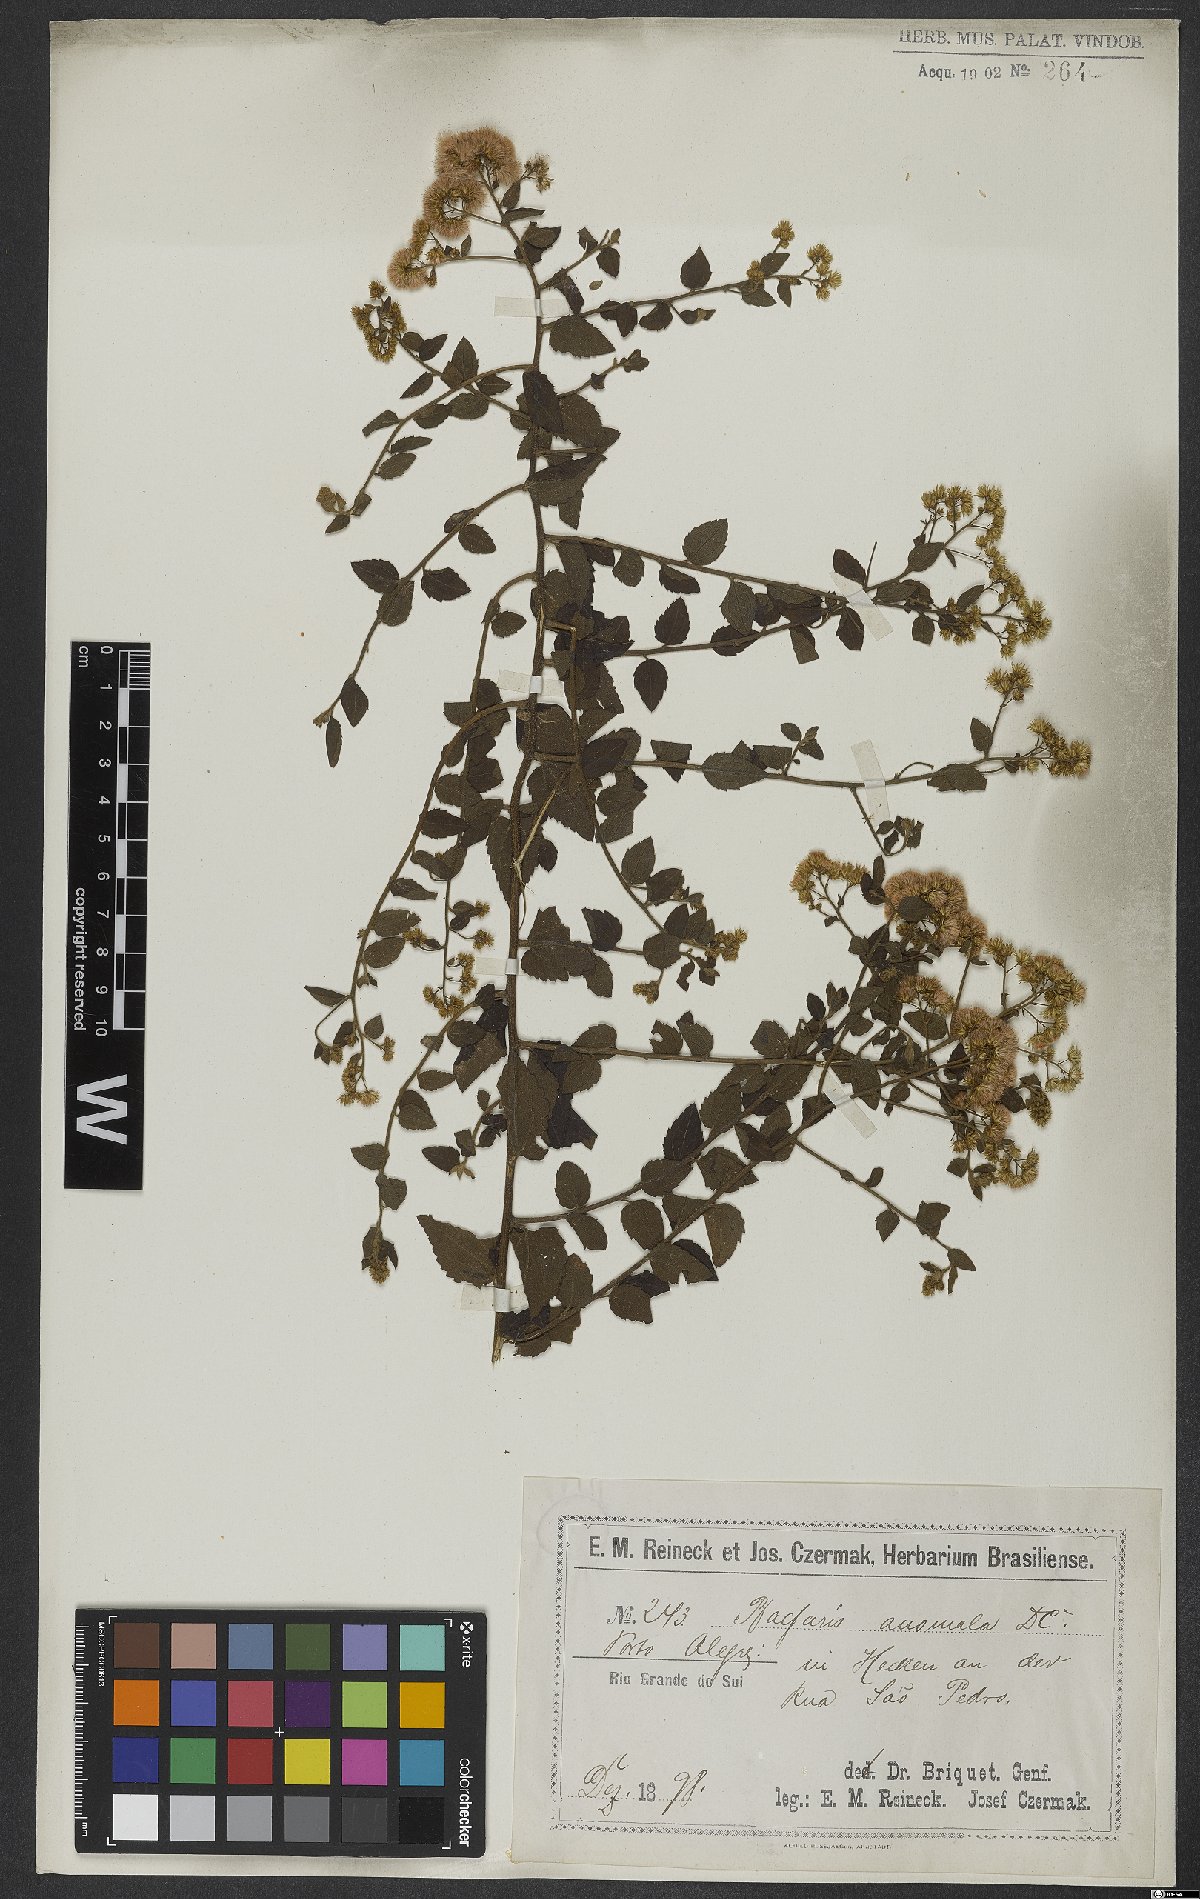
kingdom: Plantae
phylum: Tracheophyta
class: Magnoliopsida
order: Asterales
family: Asteraceae
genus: Baccharis
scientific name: Baccharis anomala
